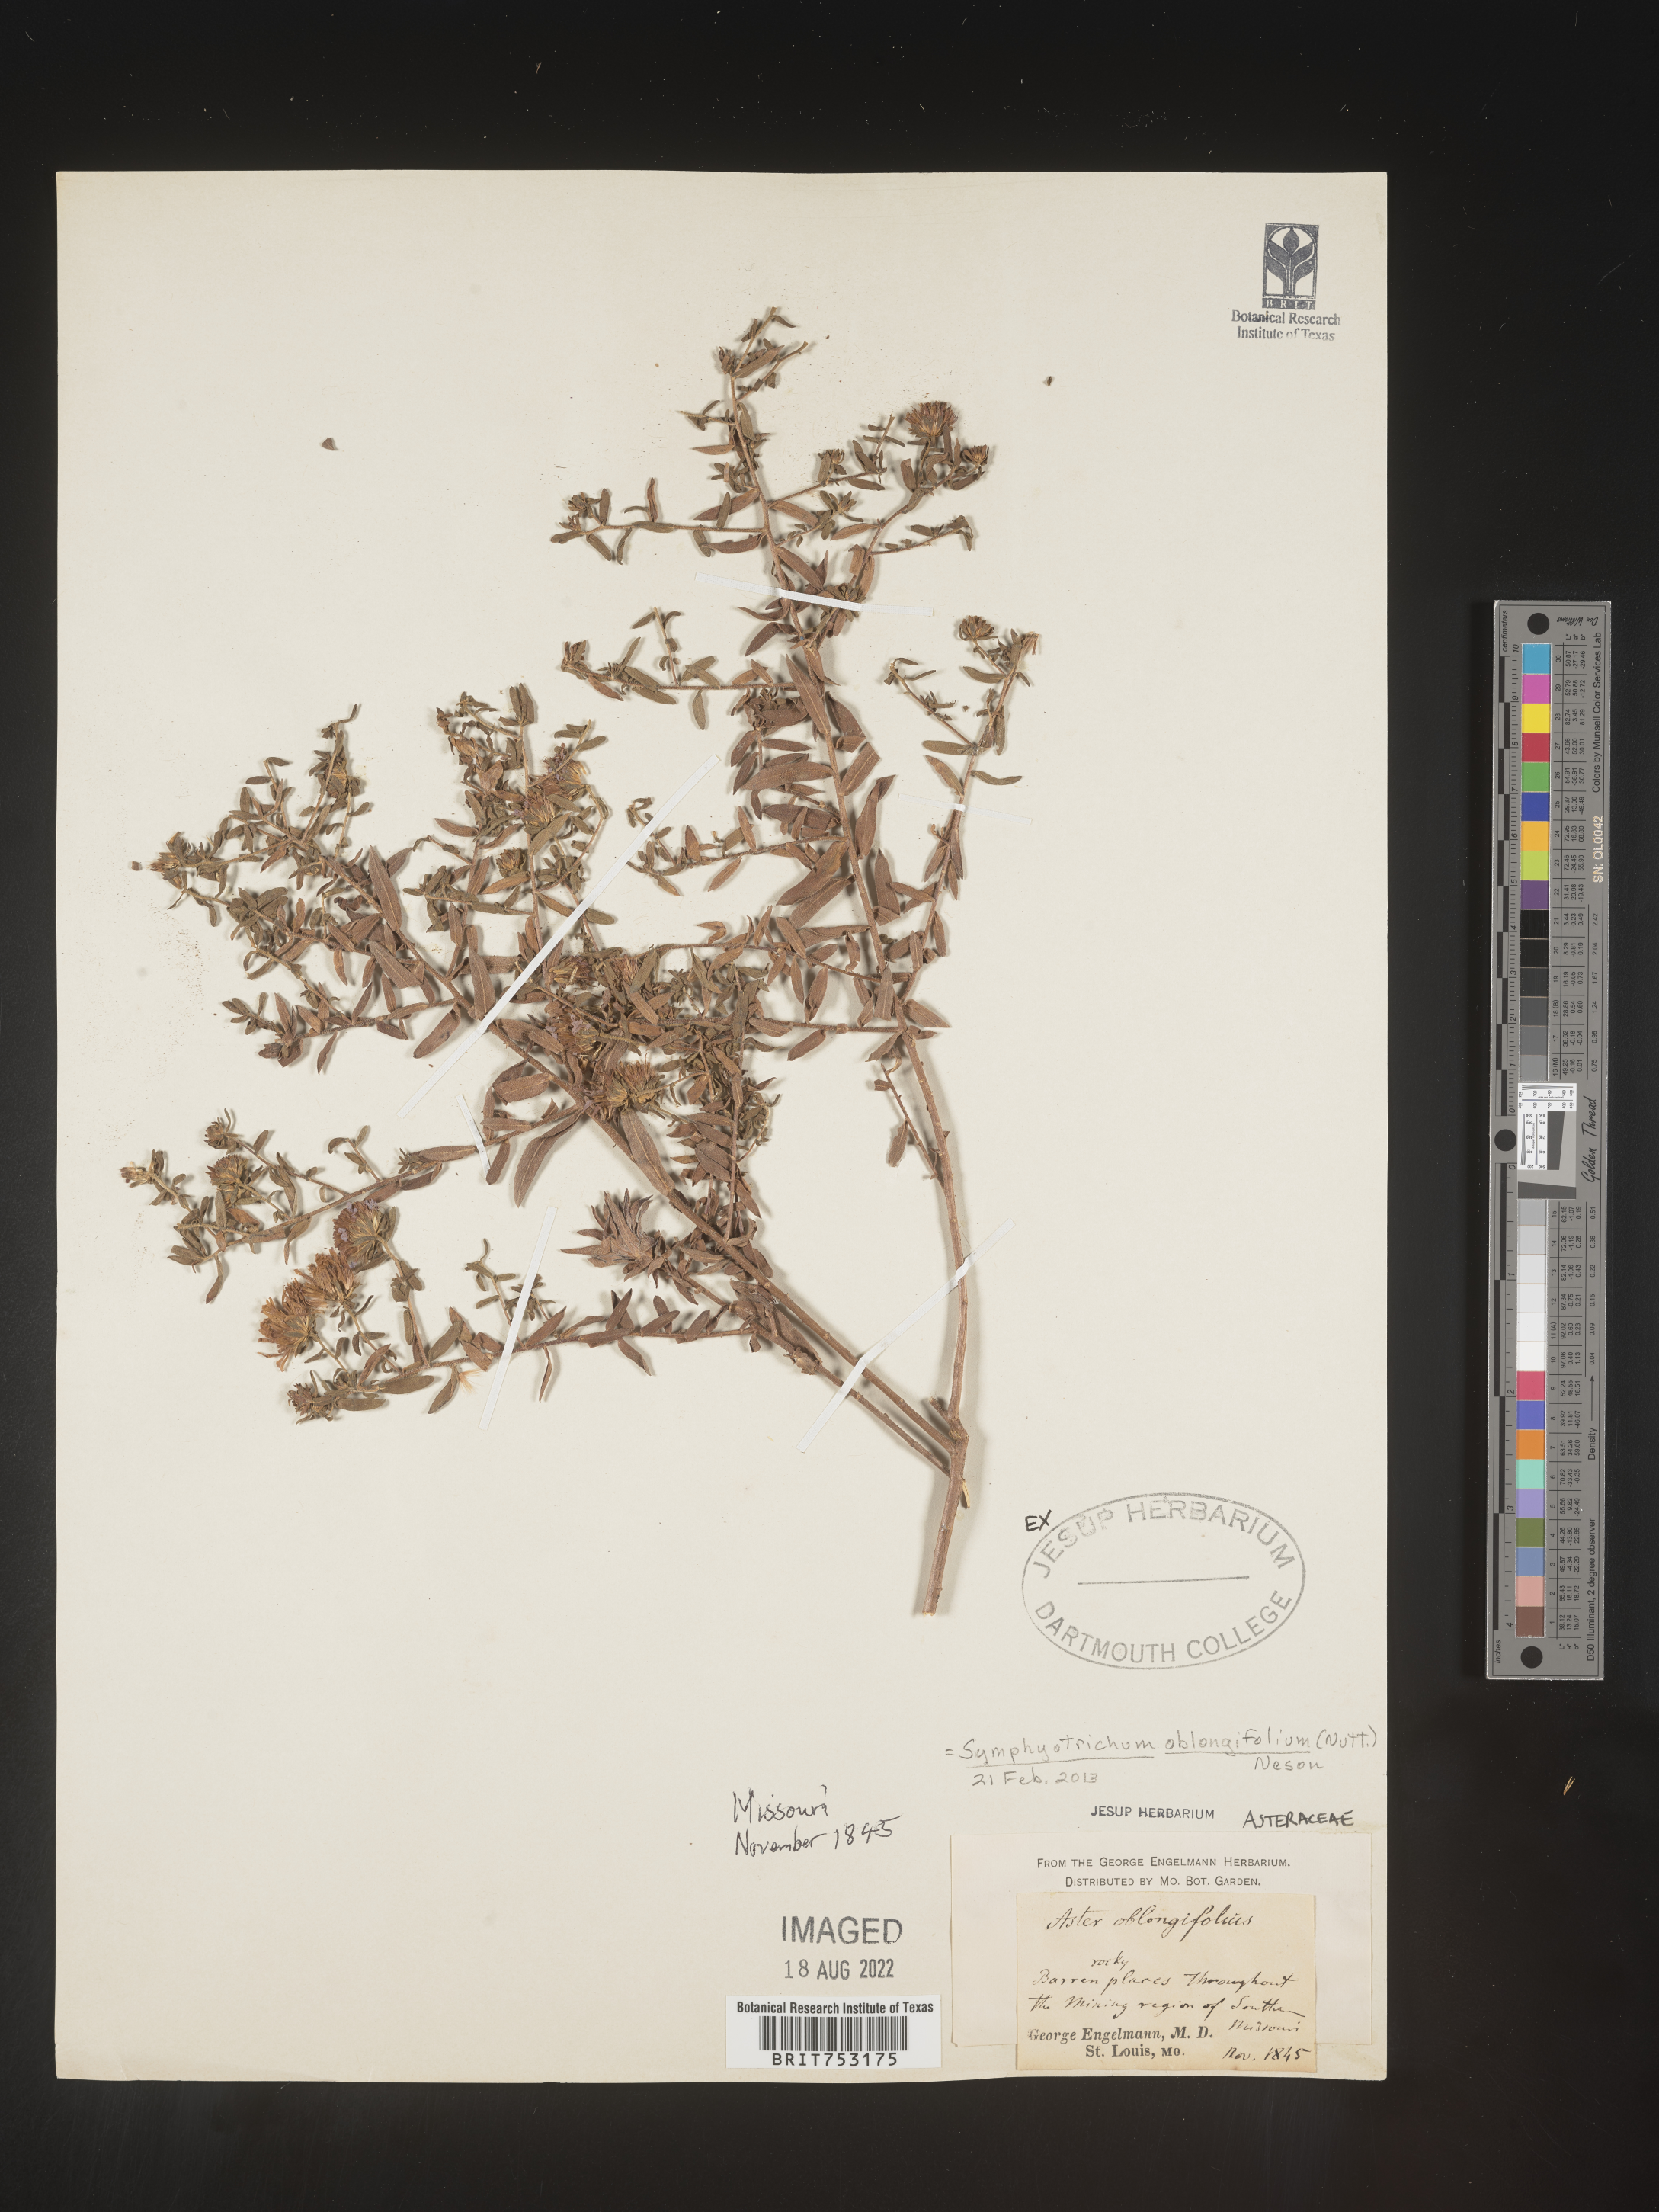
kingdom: Plantae
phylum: Tracheophyta
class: Magnoliopsida
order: Asterales
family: Asteraceae
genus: Symphyotrichum
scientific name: Symphyotrichum oblongifolium
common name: Aromatic aster
